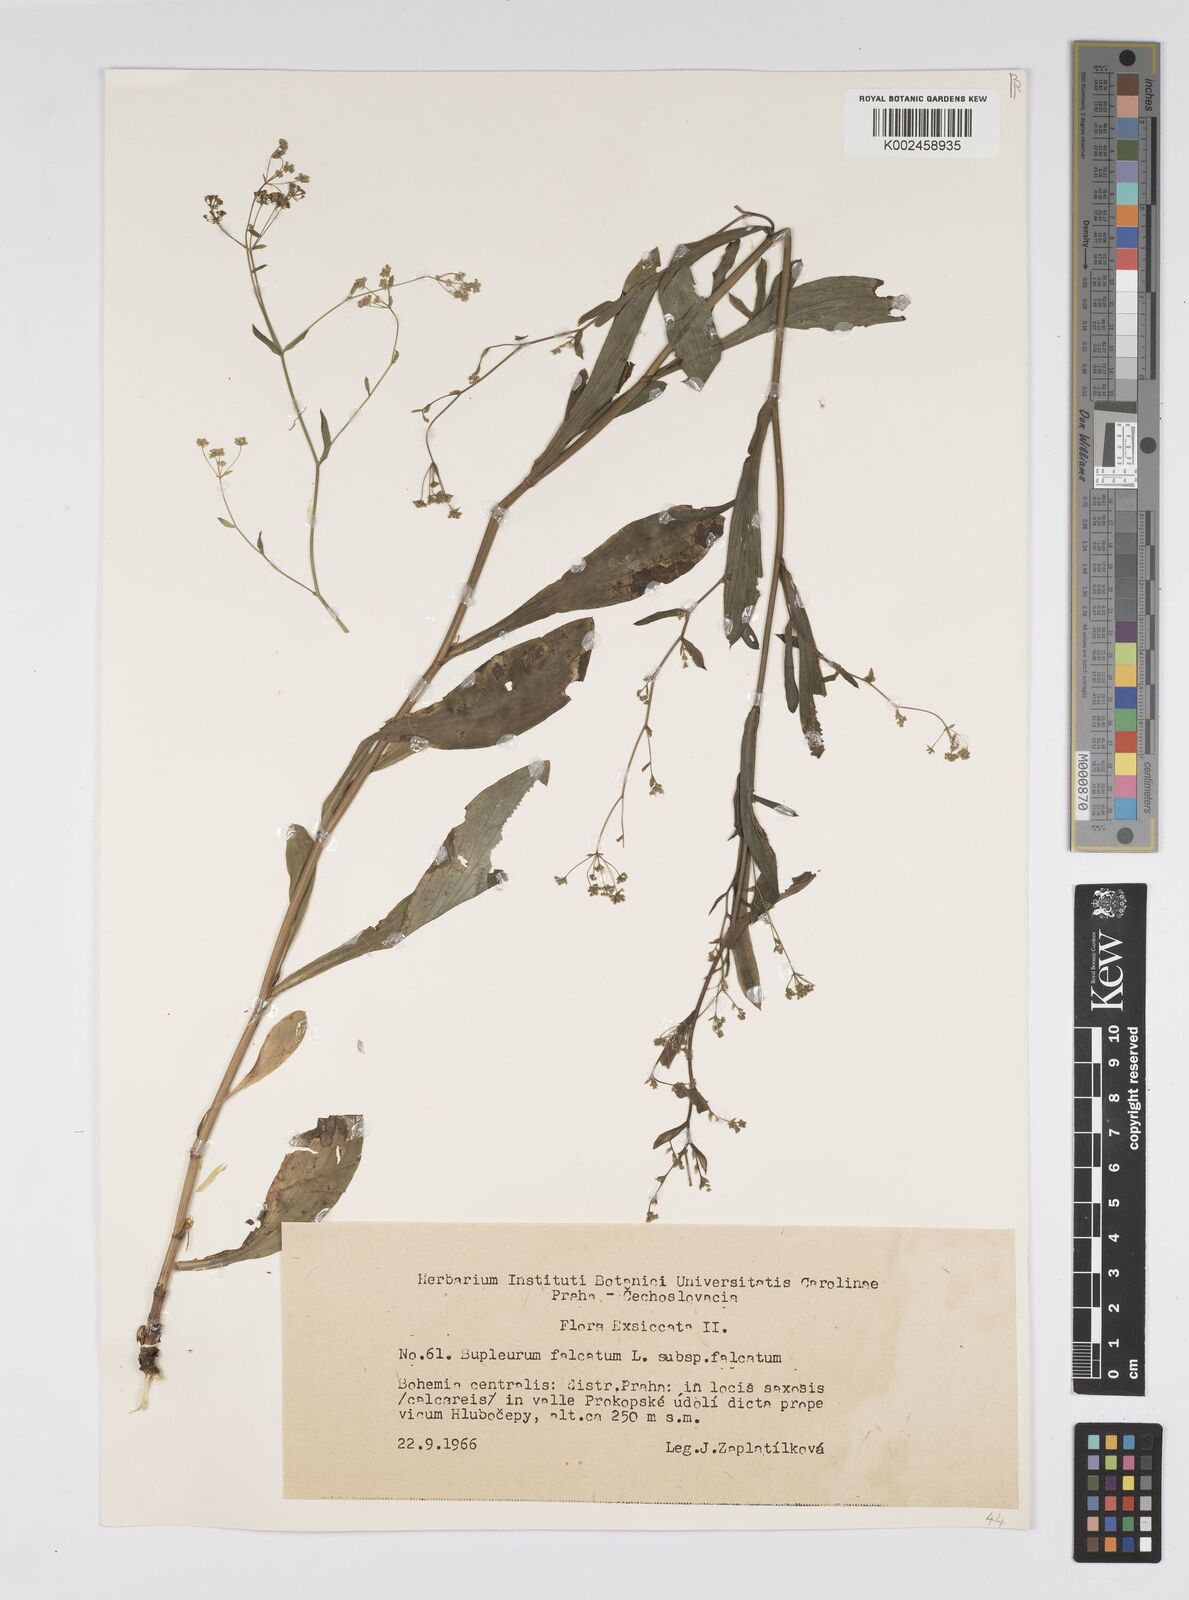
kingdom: Plantae
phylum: Tracheophyta
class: Magnoliopsida
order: Apiales
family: Apiaceae
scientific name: Apiaceae
